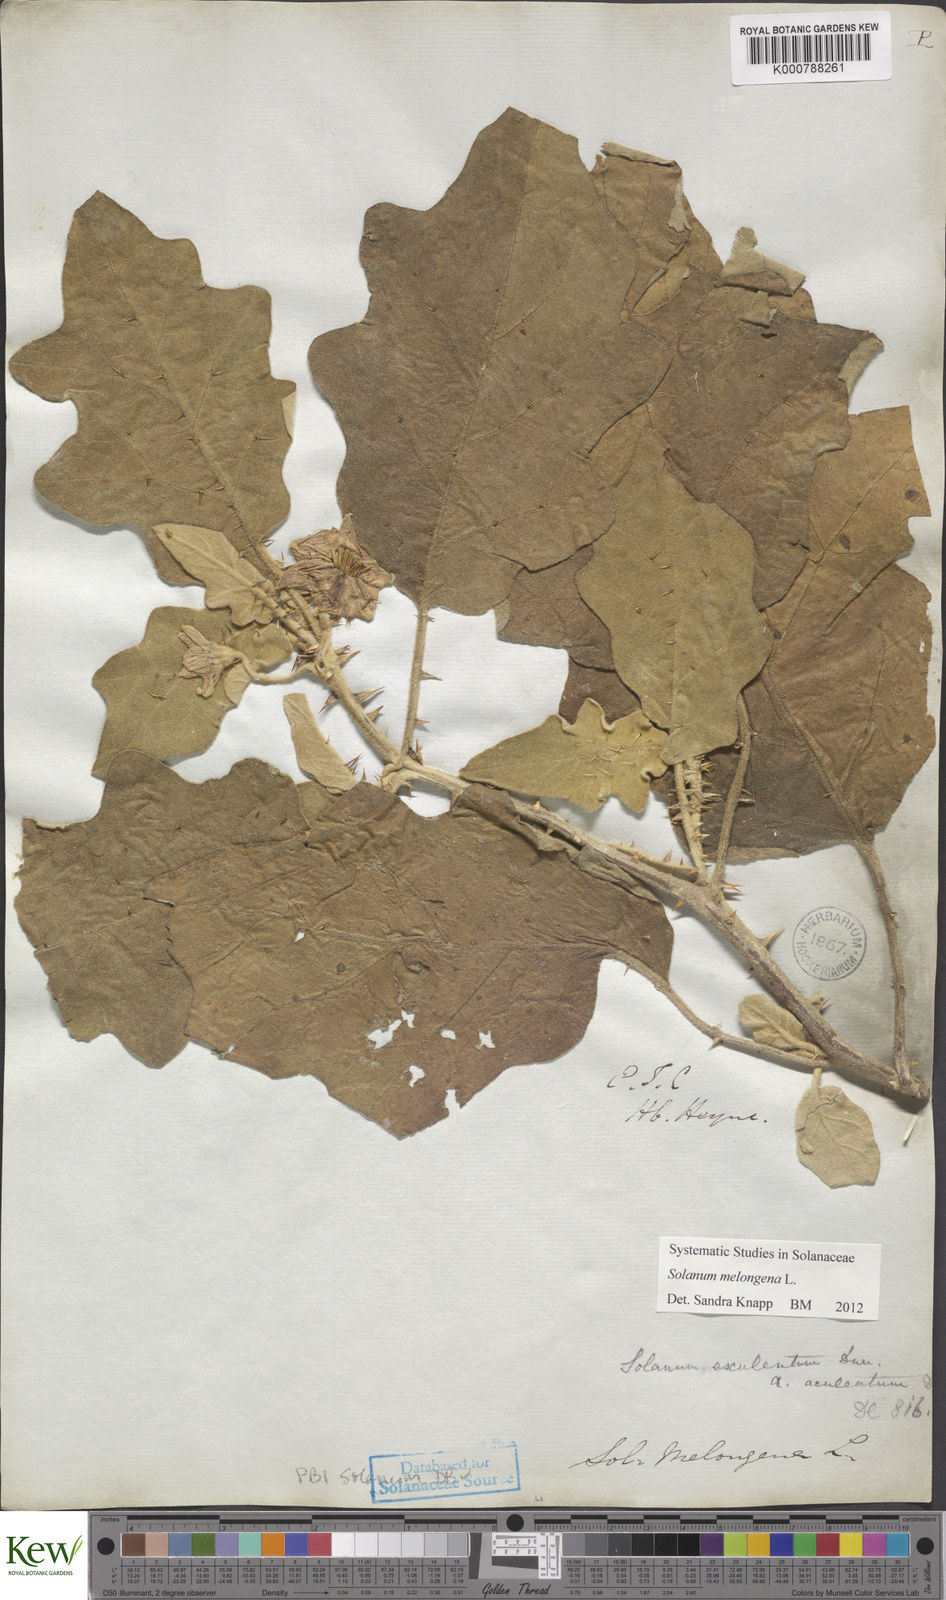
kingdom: Plantae
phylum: Tracheophyta
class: Magnoliopsida
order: Solanales
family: Solanaceae
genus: Solanum
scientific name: Solanum melongena
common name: Eggplant
